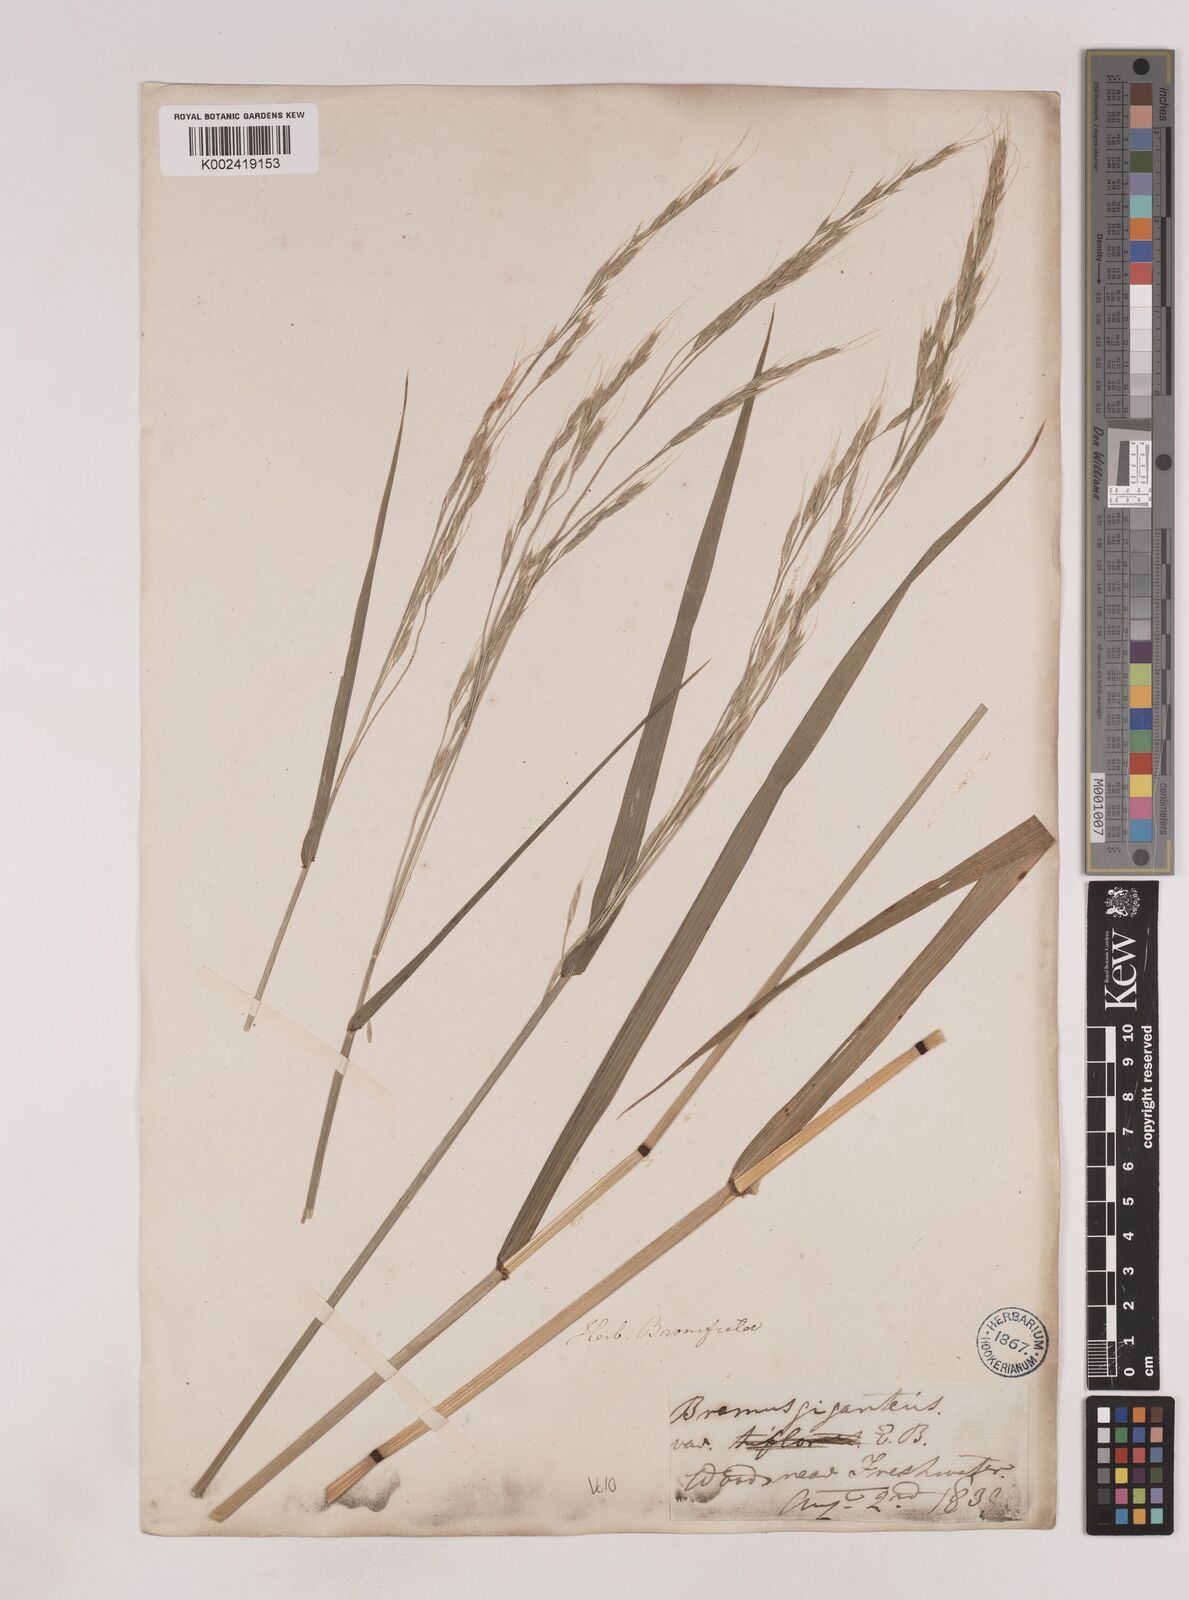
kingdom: Plantae
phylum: Tracheophyta
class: Liliopsida
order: Poales
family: Poaceae
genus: Lolium
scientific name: Lolium giganteum
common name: Giant fescue
